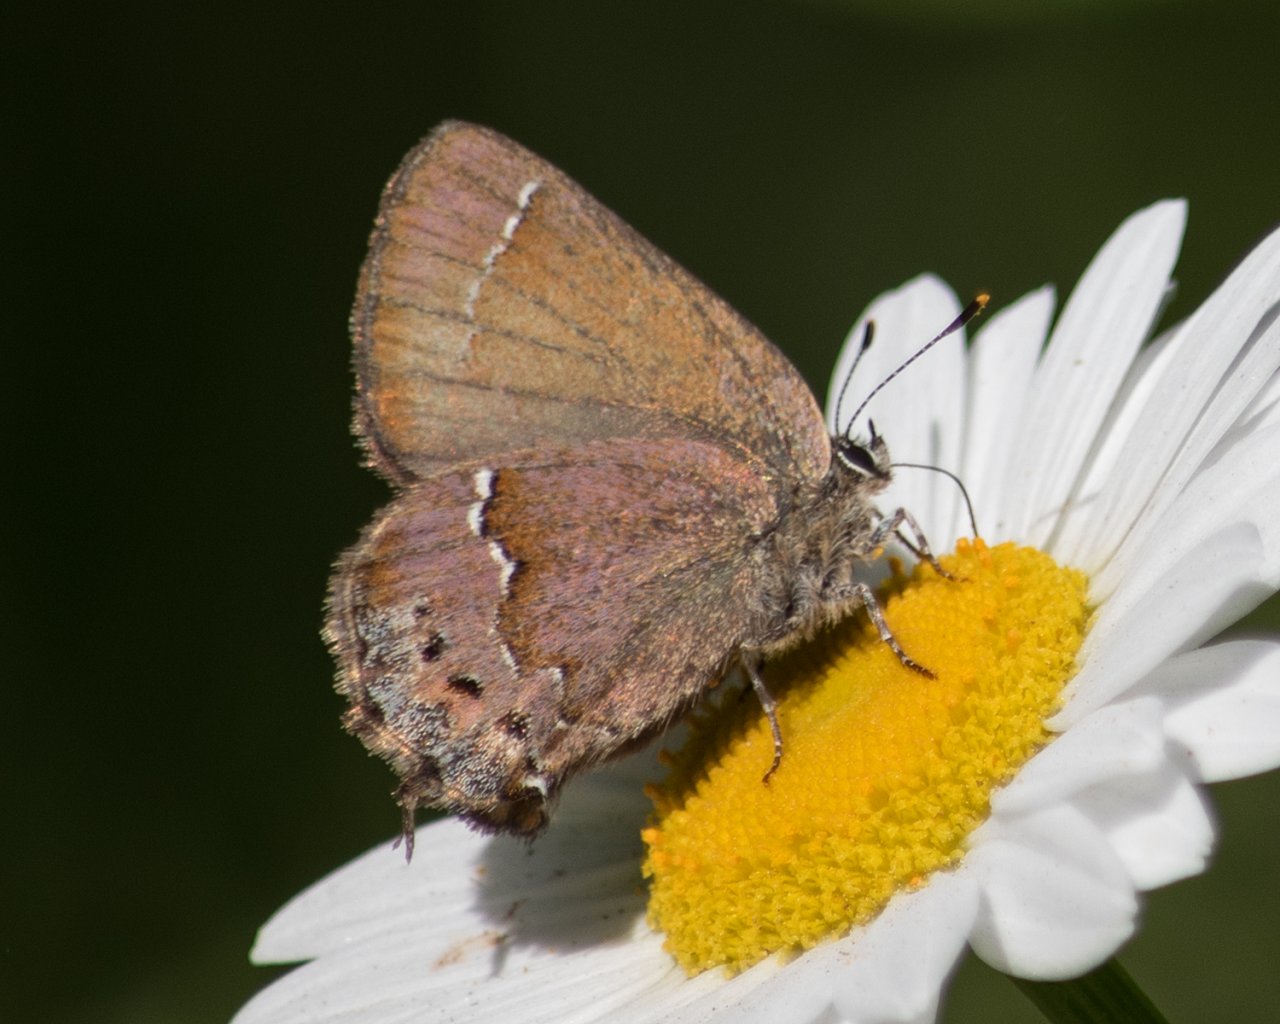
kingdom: Animalia
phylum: Arthropoda
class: Insecta
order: Lepidoptera
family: Lycaenidae
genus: Mitoura
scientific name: Mitoura nelsoni
